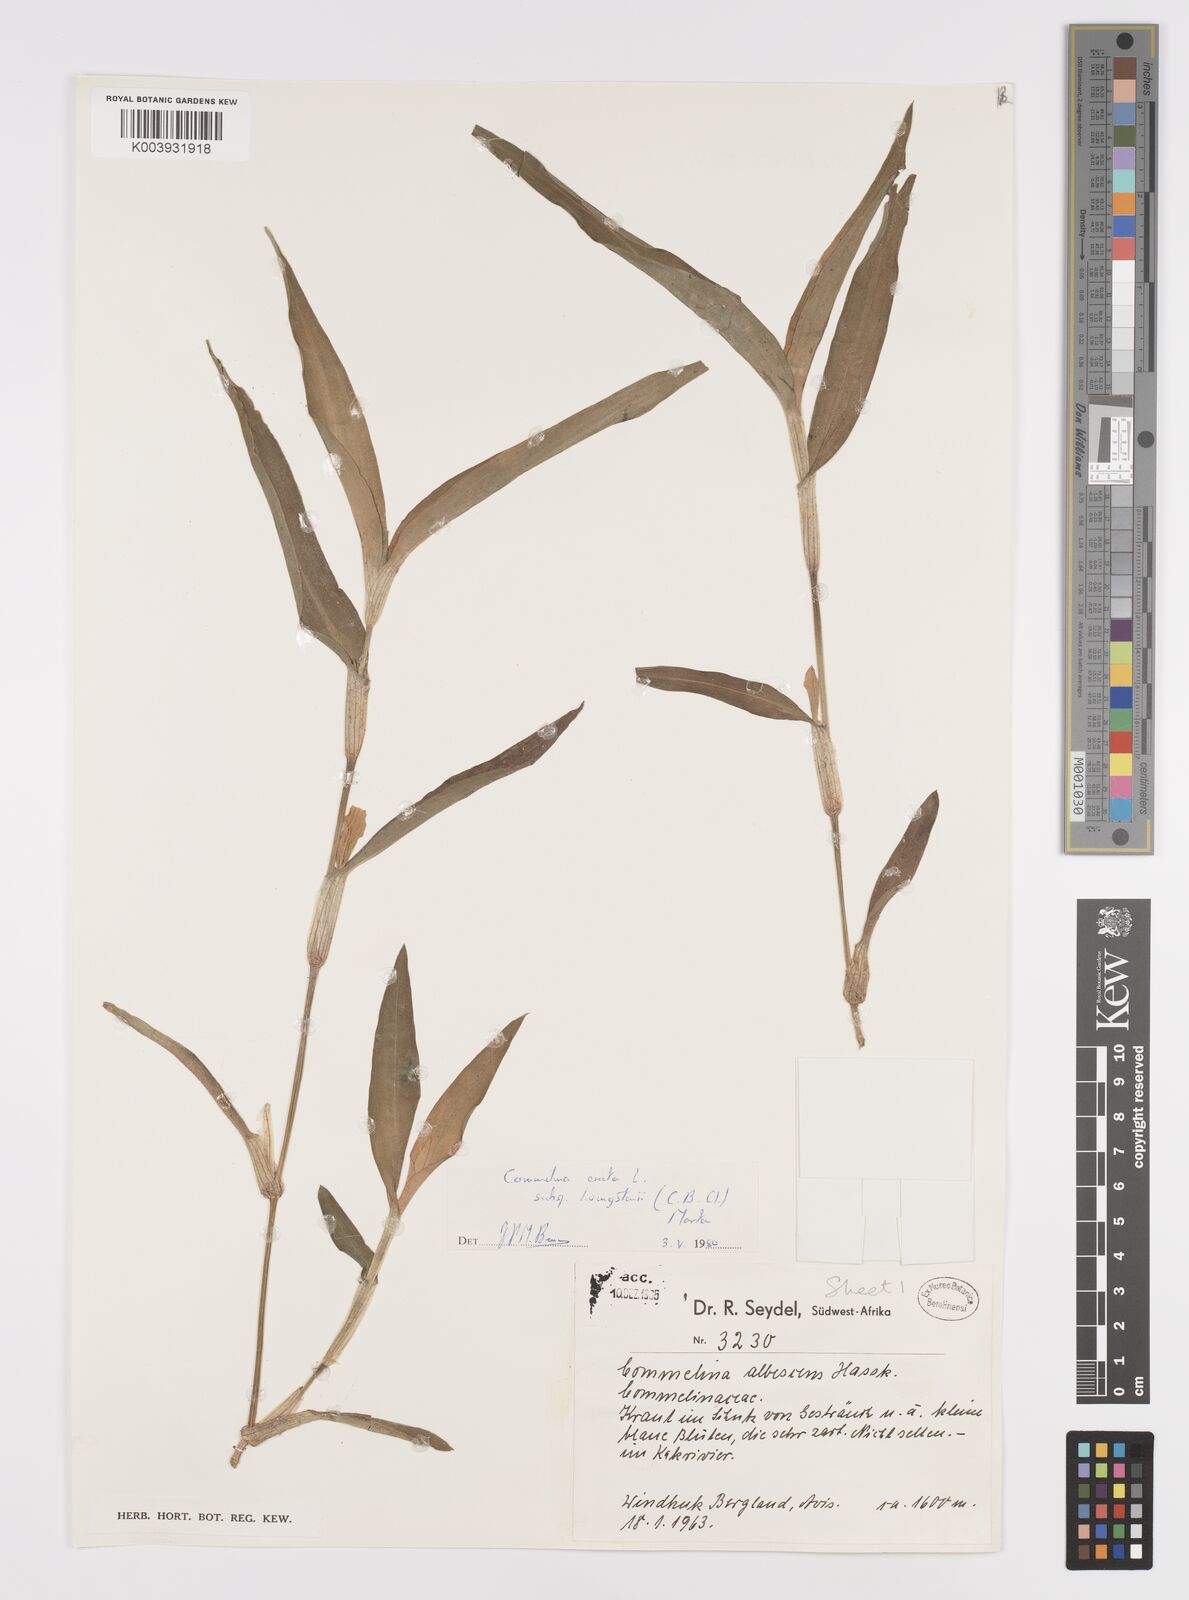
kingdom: Plantae
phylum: Tracheophyta
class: Liliopsida
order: Commelinales
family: Commelinaceae
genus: Commelina
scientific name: Commelina erecta
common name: Blousel blommetjie
